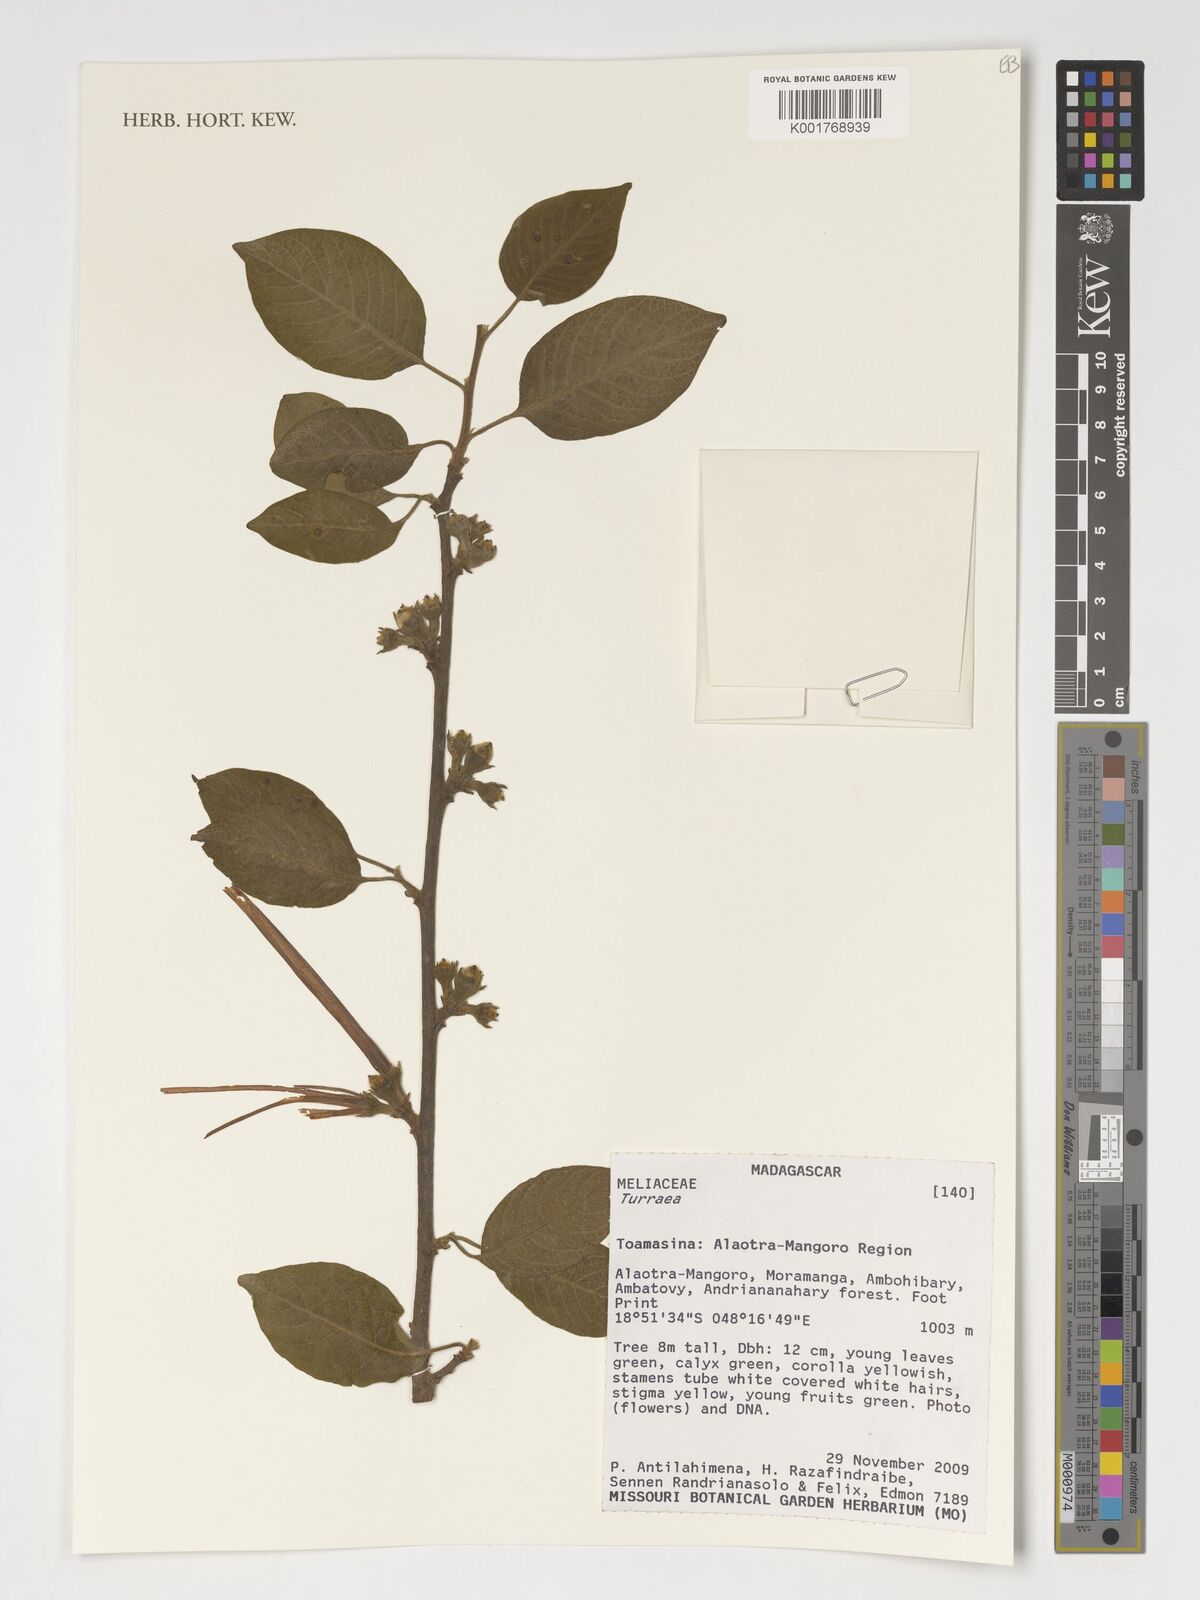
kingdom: Plantae
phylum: Tracheophyta
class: Magnoliopsida
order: Sapindales
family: Meliaceae
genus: Turraea
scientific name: Turraea
